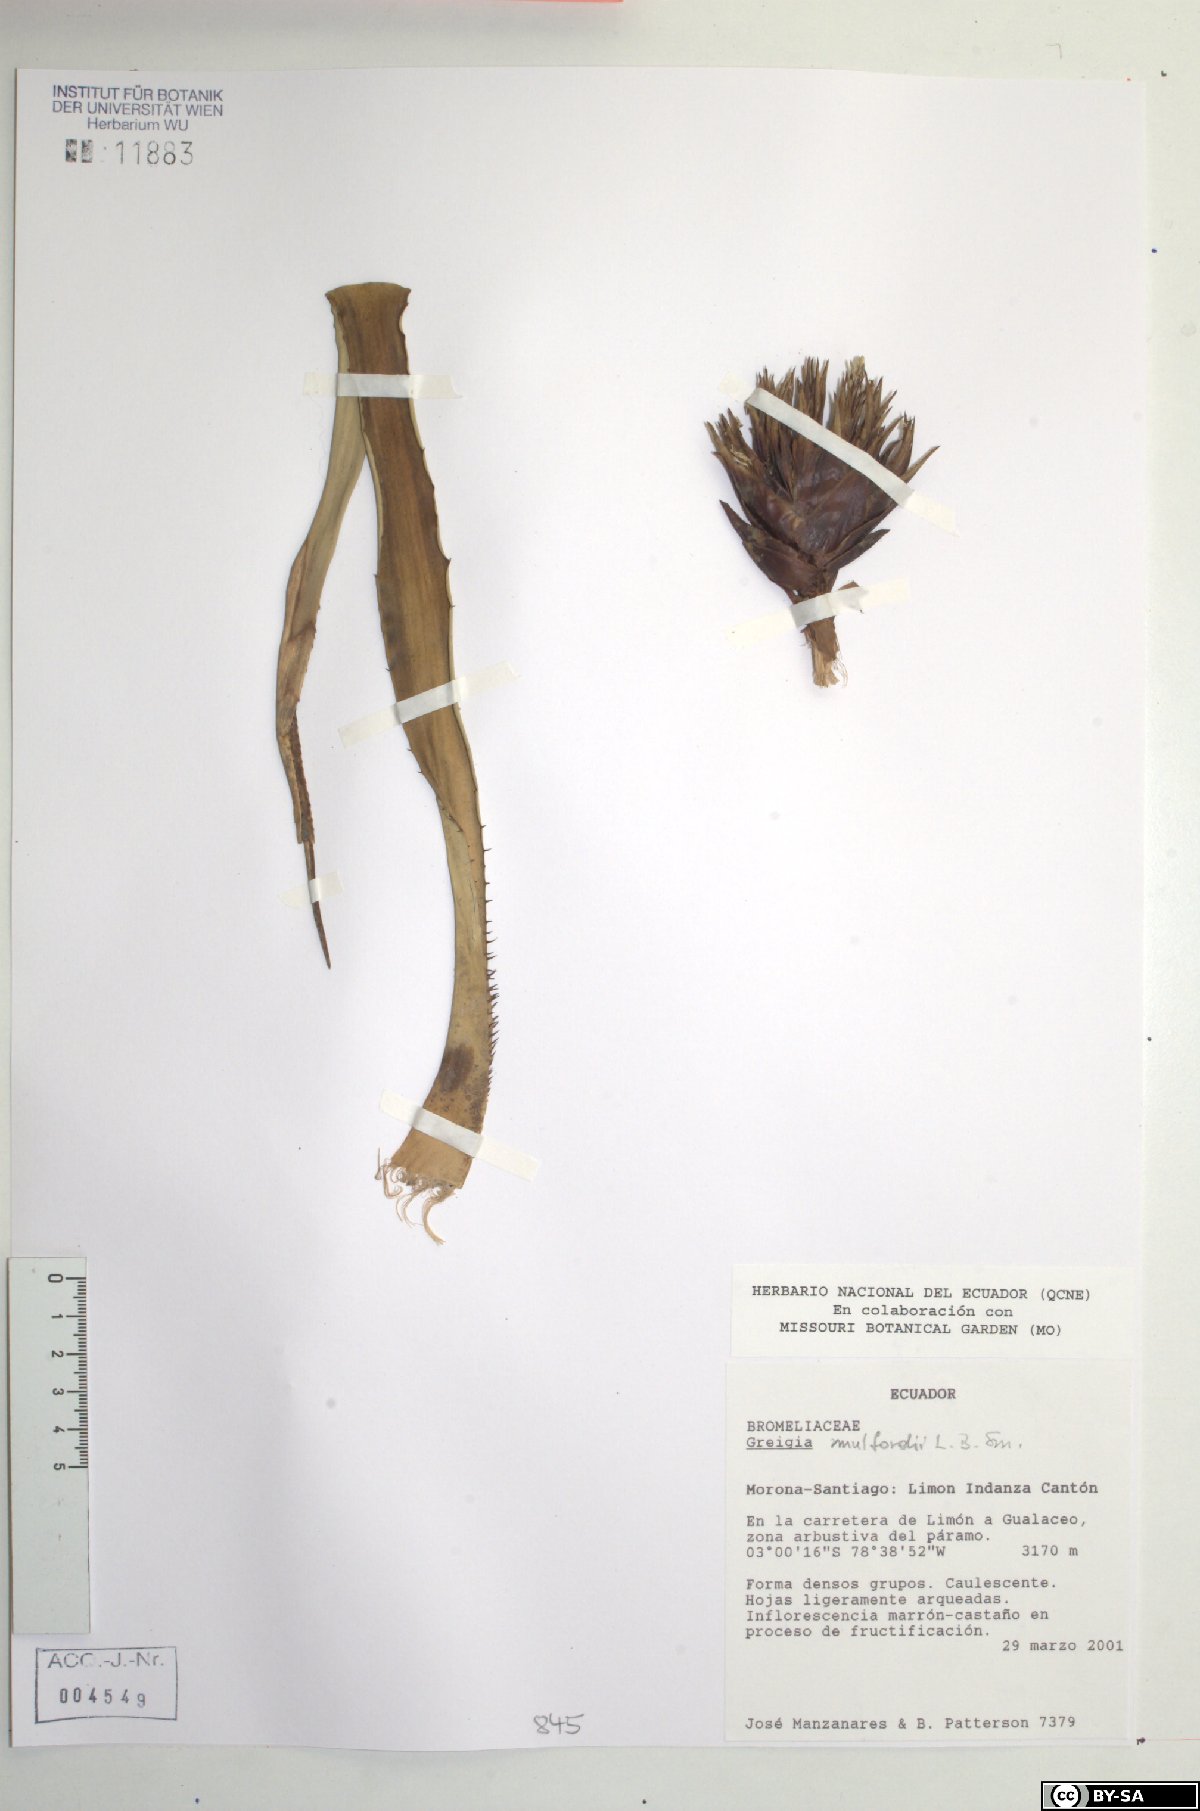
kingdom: Plantae
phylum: Tracheophyta
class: Liliopsida
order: Poales
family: Bromeliaceae
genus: Greigia
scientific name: Greigia mulfordii
